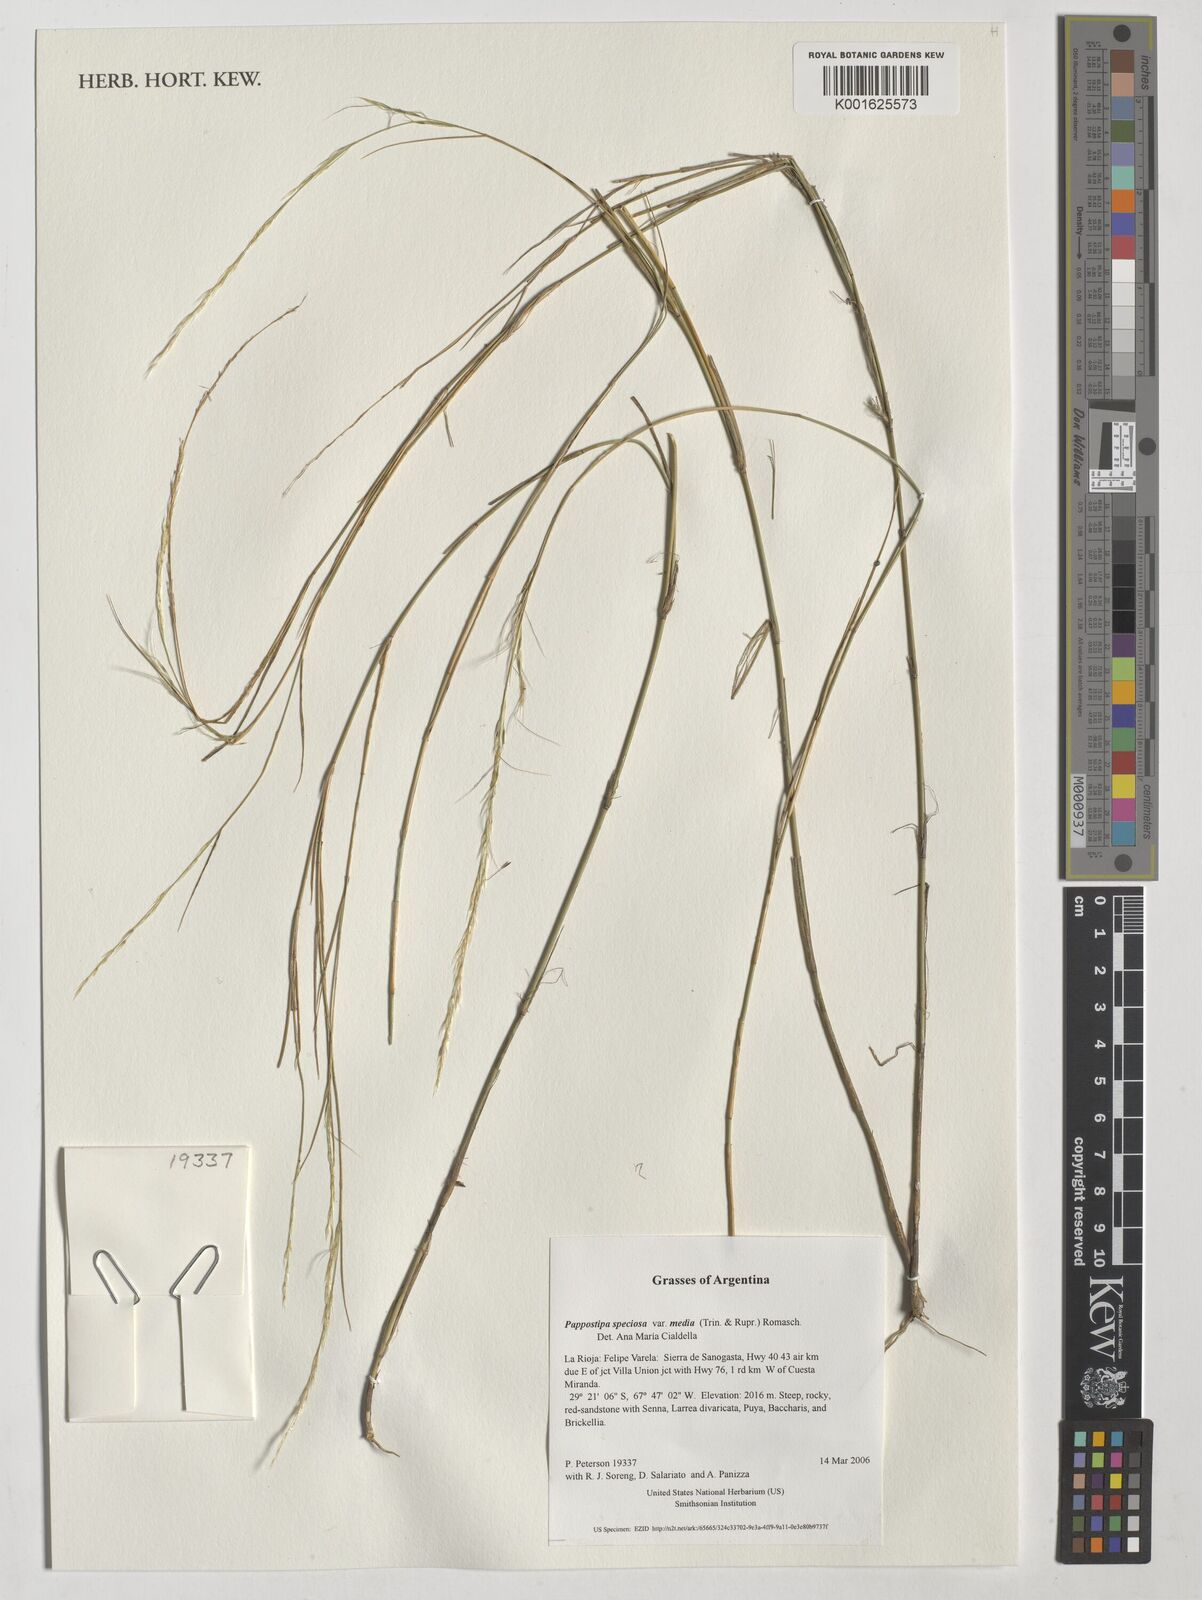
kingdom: Plantae
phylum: Tracheophyta
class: Liliopsida
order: Poales
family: Poaceae
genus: Pappostipa
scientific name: Pappostipa speciosa
